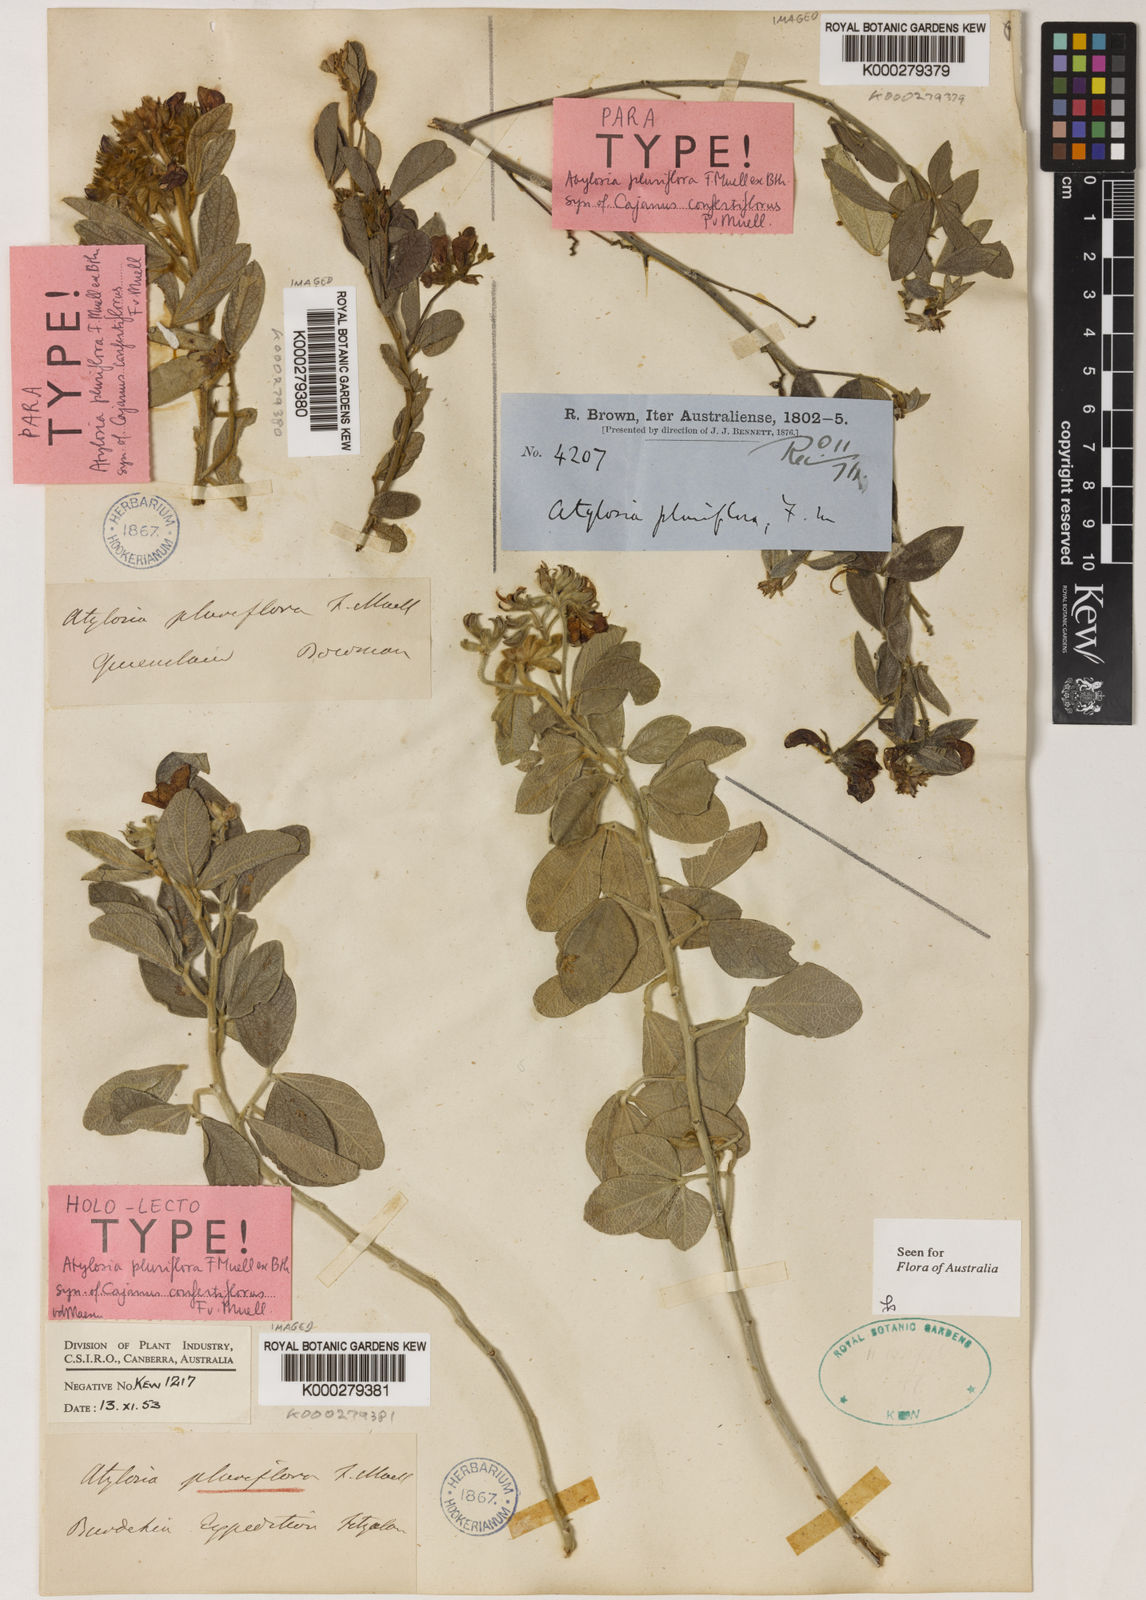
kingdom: Plantae
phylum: Tracheophyta
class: Magnoliopsida
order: Fabales
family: Fabaceae
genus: Cajanus
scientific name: Cajanus confertiflorus
